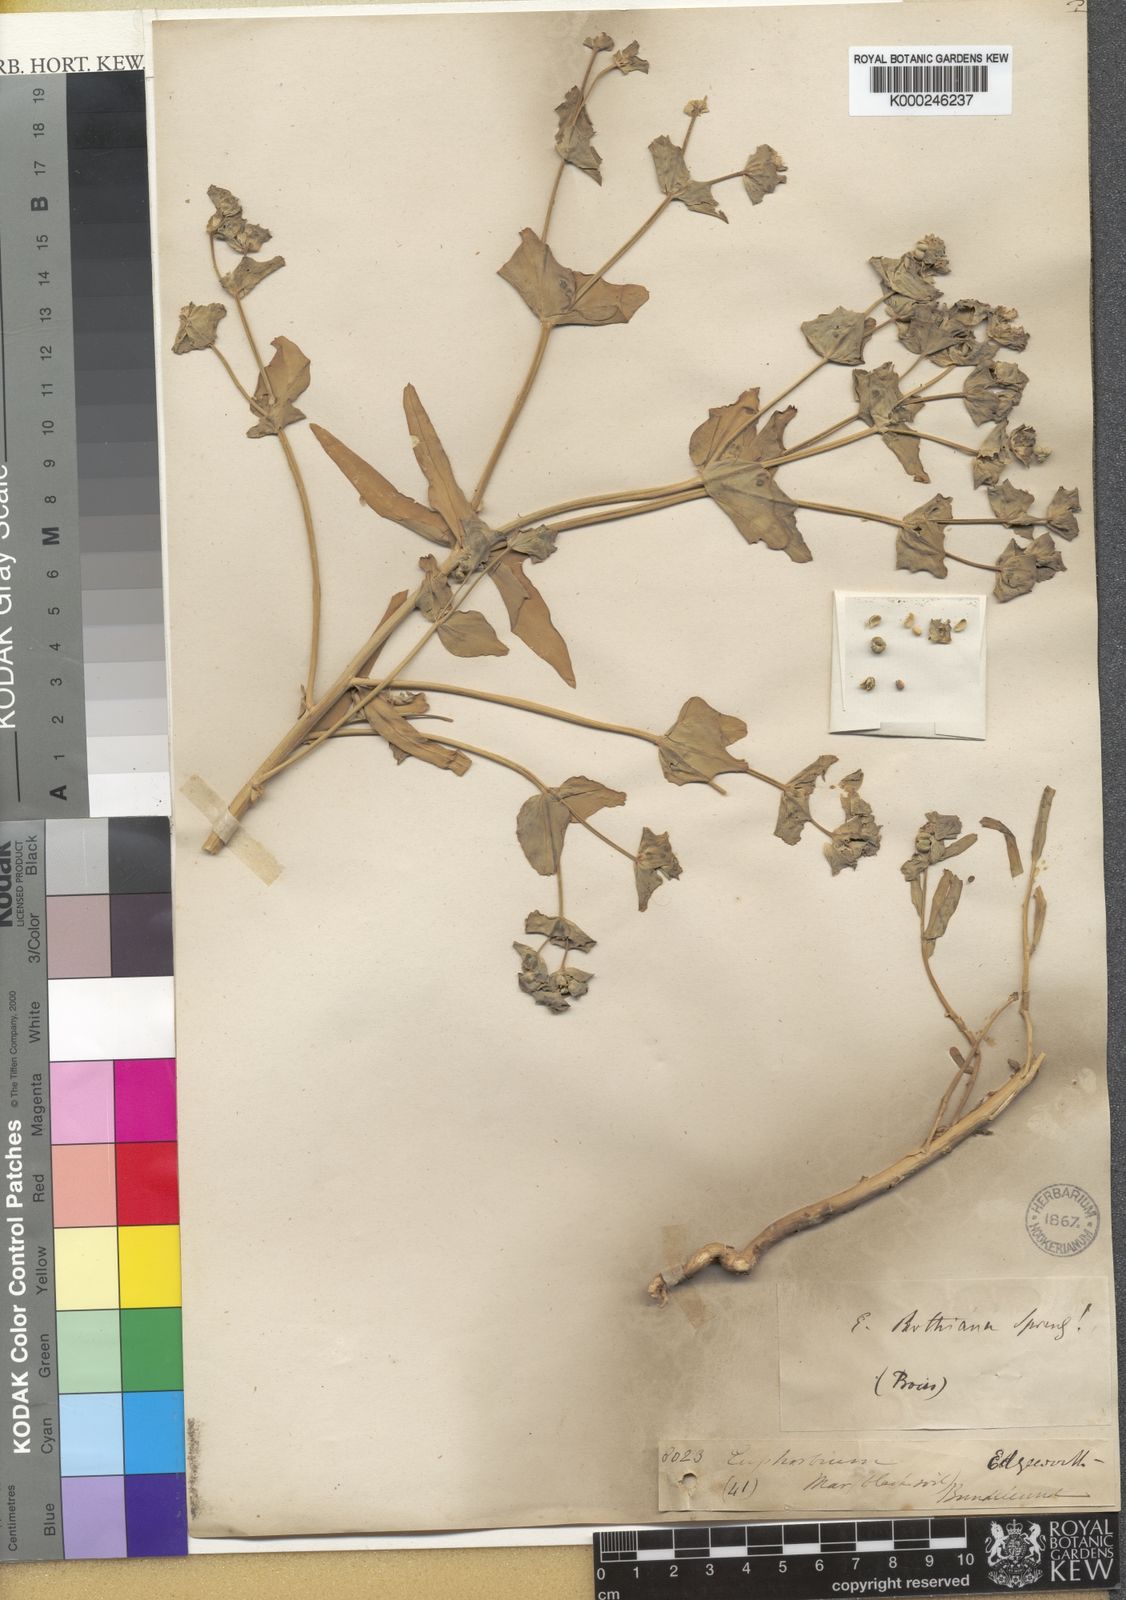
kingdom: Plantae
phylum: Tracheophyta
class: Magnoliopsida
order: Malpighiales
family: Euphorbiaceae
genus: Euphorbia
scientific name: Euphorbia rothiana
